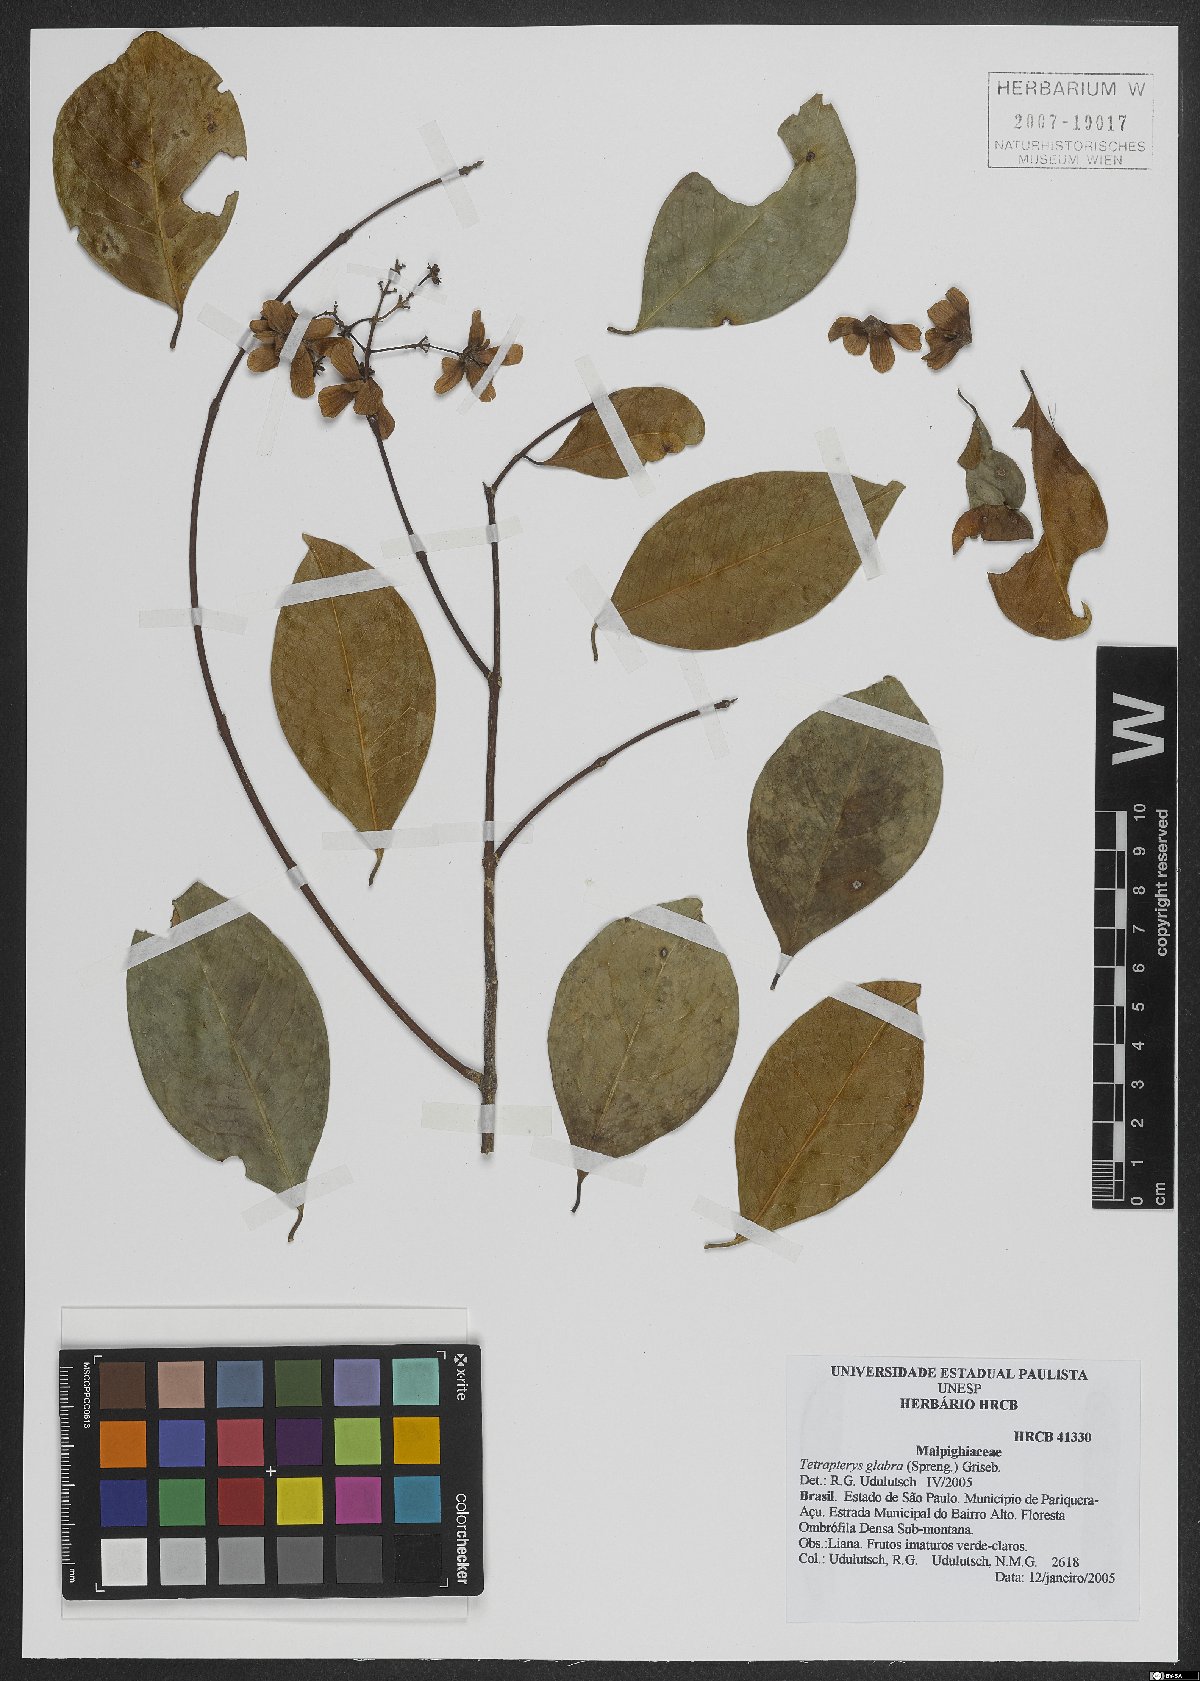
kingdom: Plantae
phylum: Tracheophyta
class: Magnoliopsida
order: Malpighiales
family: Malpighiaceae
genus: Niedenzuella
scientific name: Niedenzuella glabra
